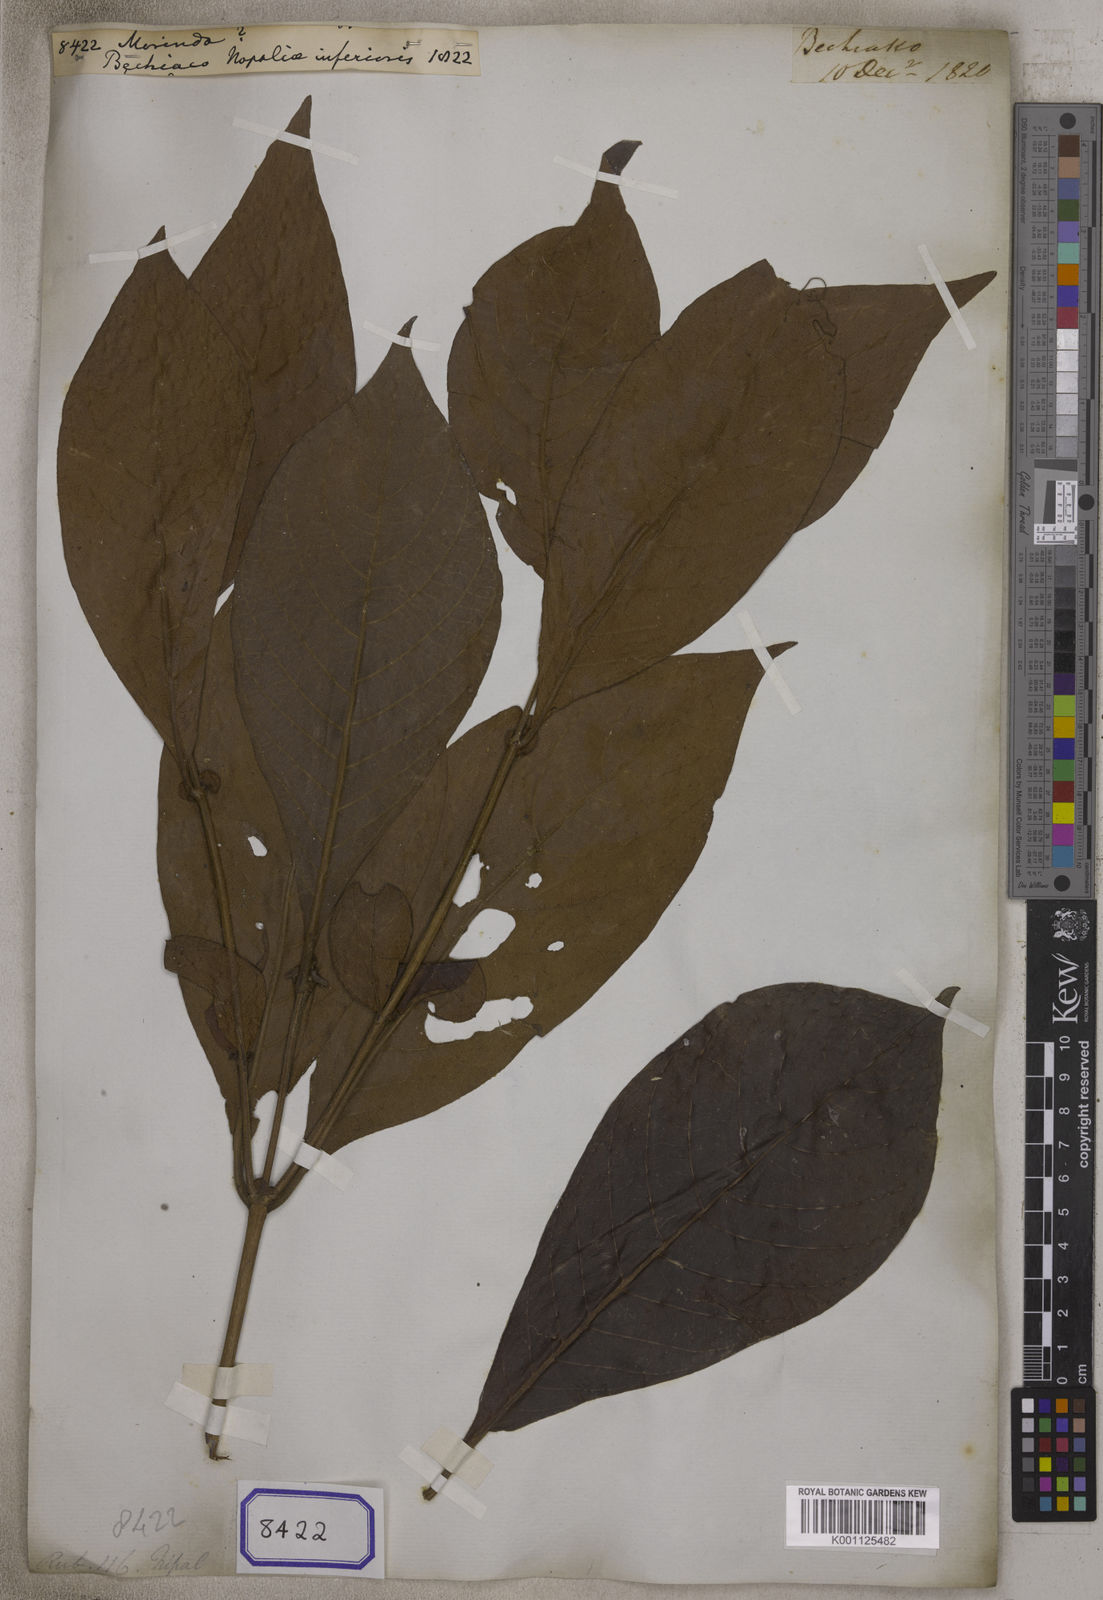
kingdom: Plantae
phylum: Tracheophyta
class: Magnoliopsida
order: Gentianales
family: Rubiaceae
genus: Morinda
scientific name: Morinda
